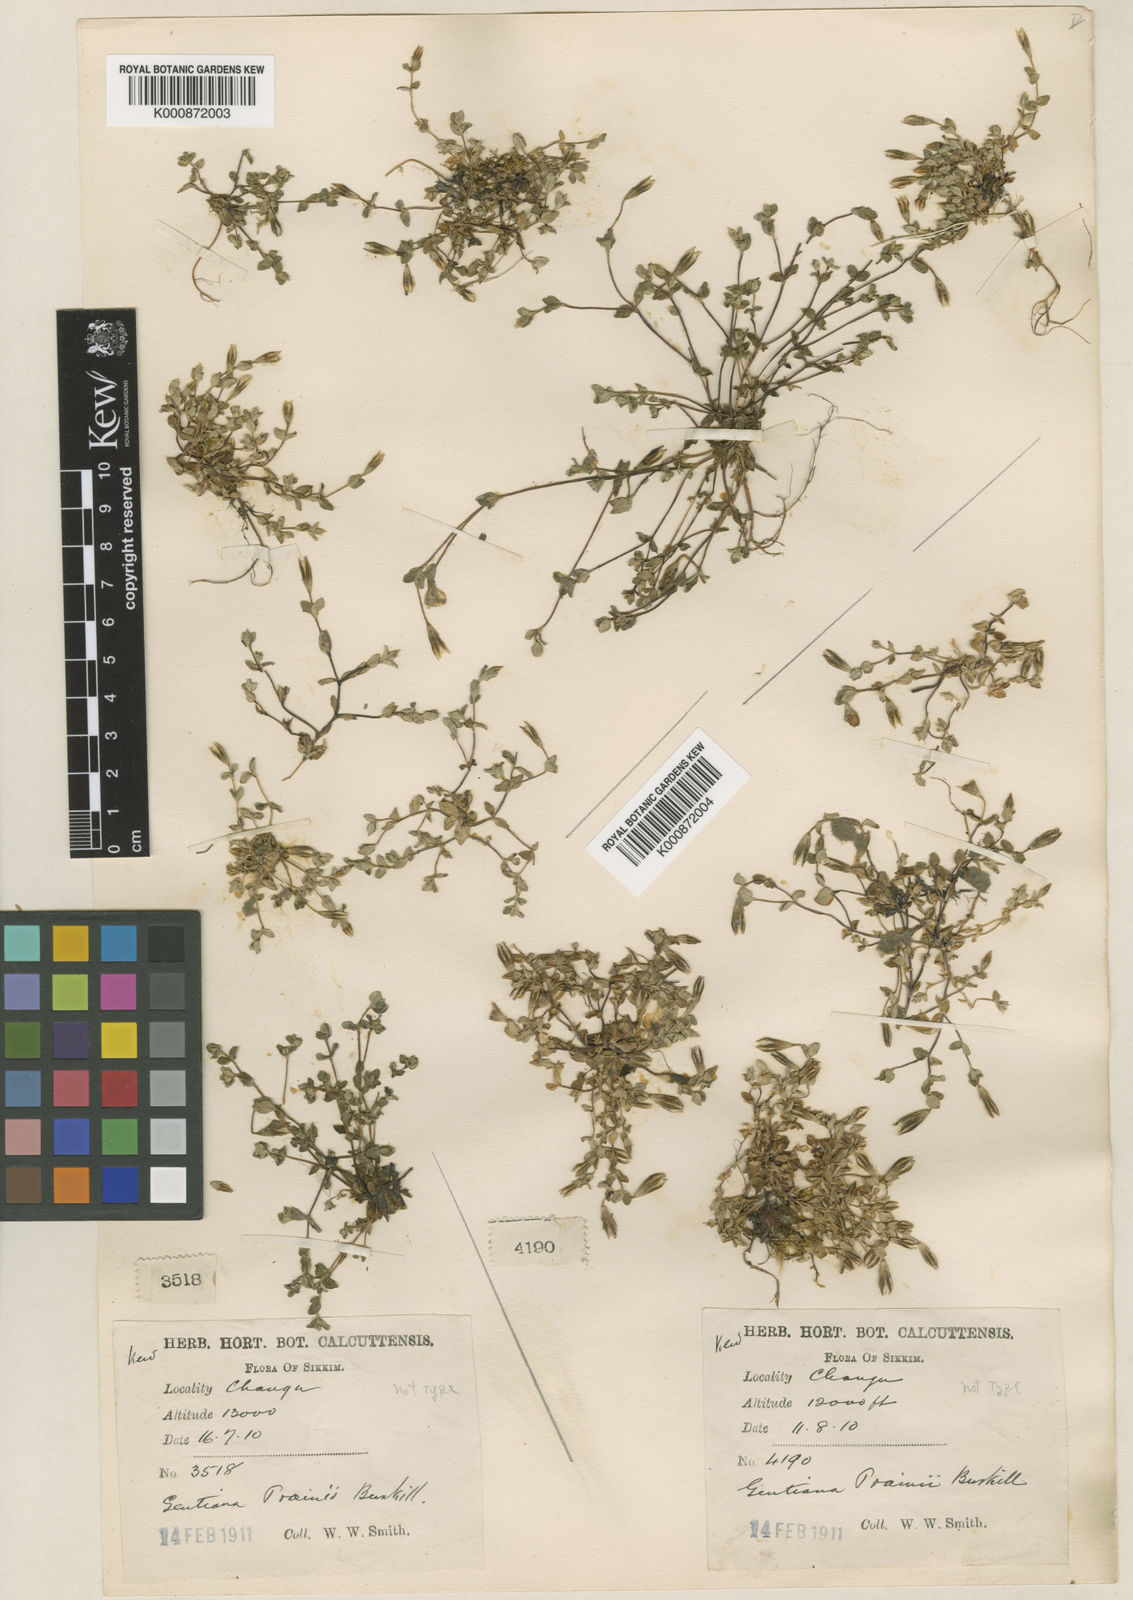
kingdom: Plantae
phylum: Tracheophyta
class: Magnoliopsida
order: Gentianales
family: Gentianaceae
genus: Gentiana
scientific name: Gentiana recurvata
